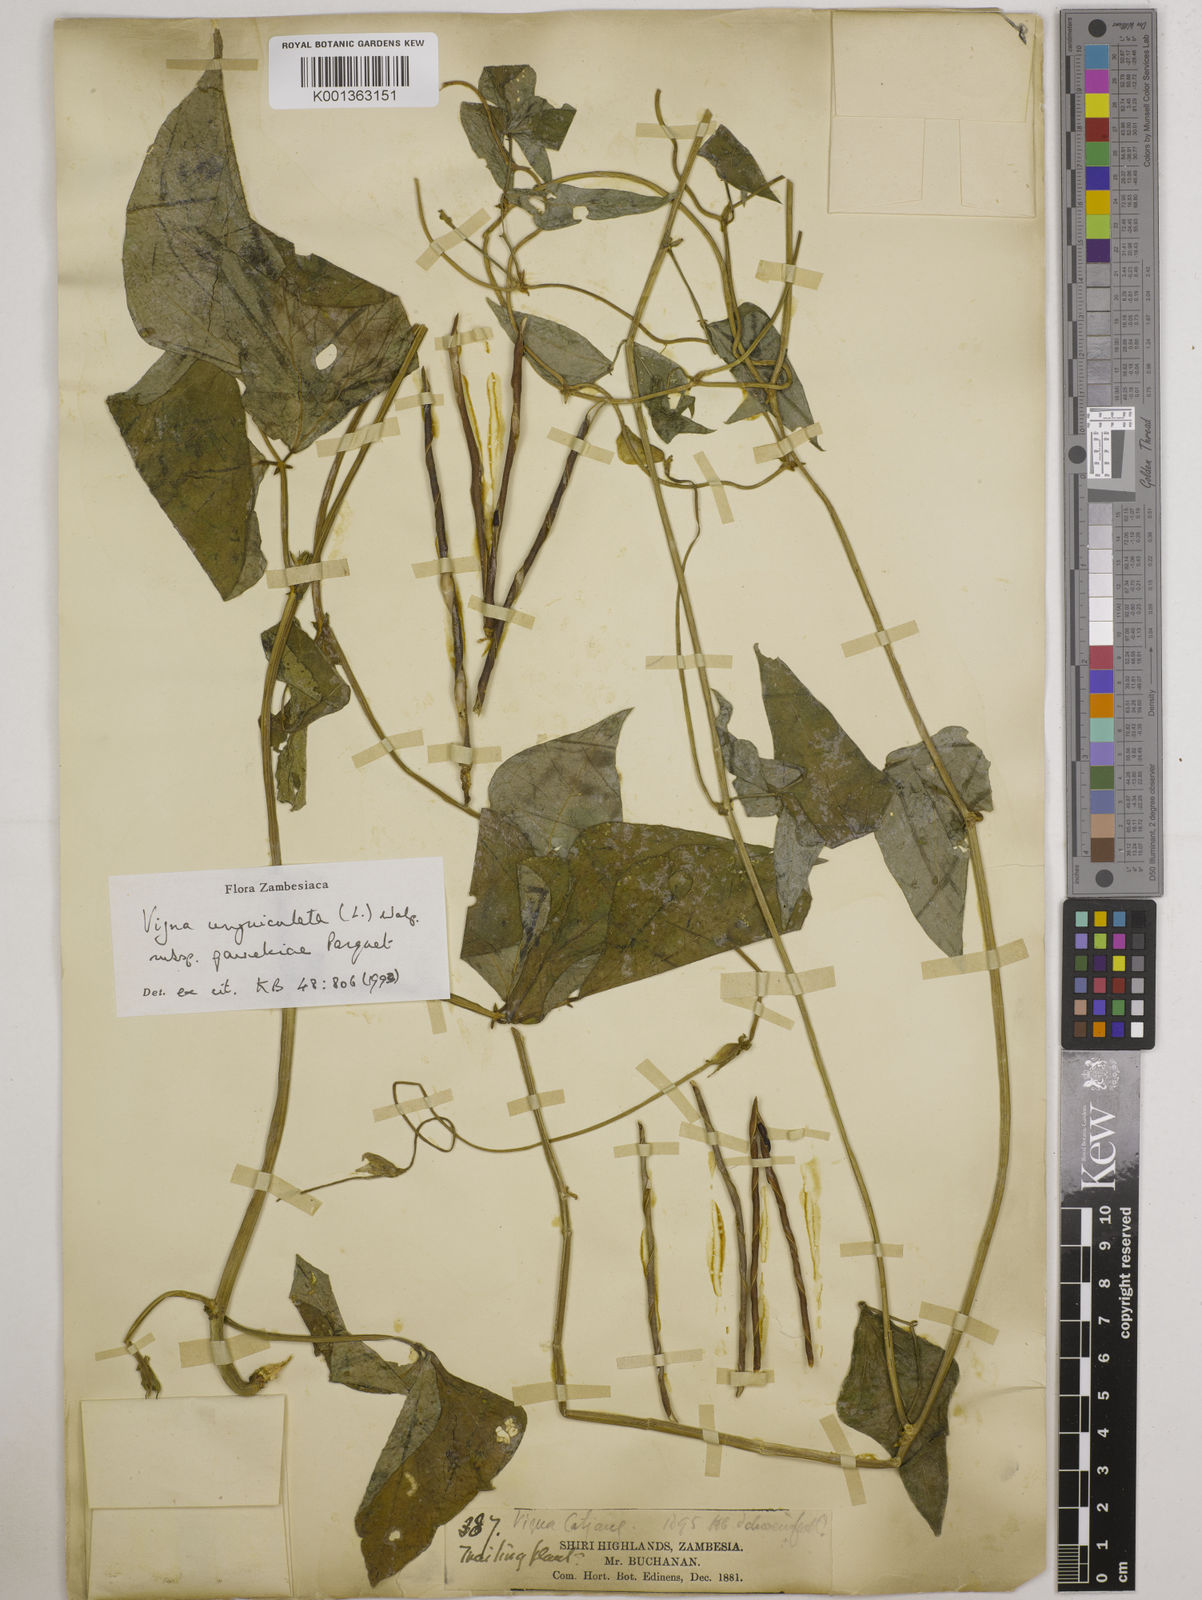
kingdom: Plantae
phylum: Tracheophyta
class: Magnoliopsida
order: Fabales
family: Fabaceae
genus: Vigna
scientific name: Vigna unguiculata
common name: Cowpea
